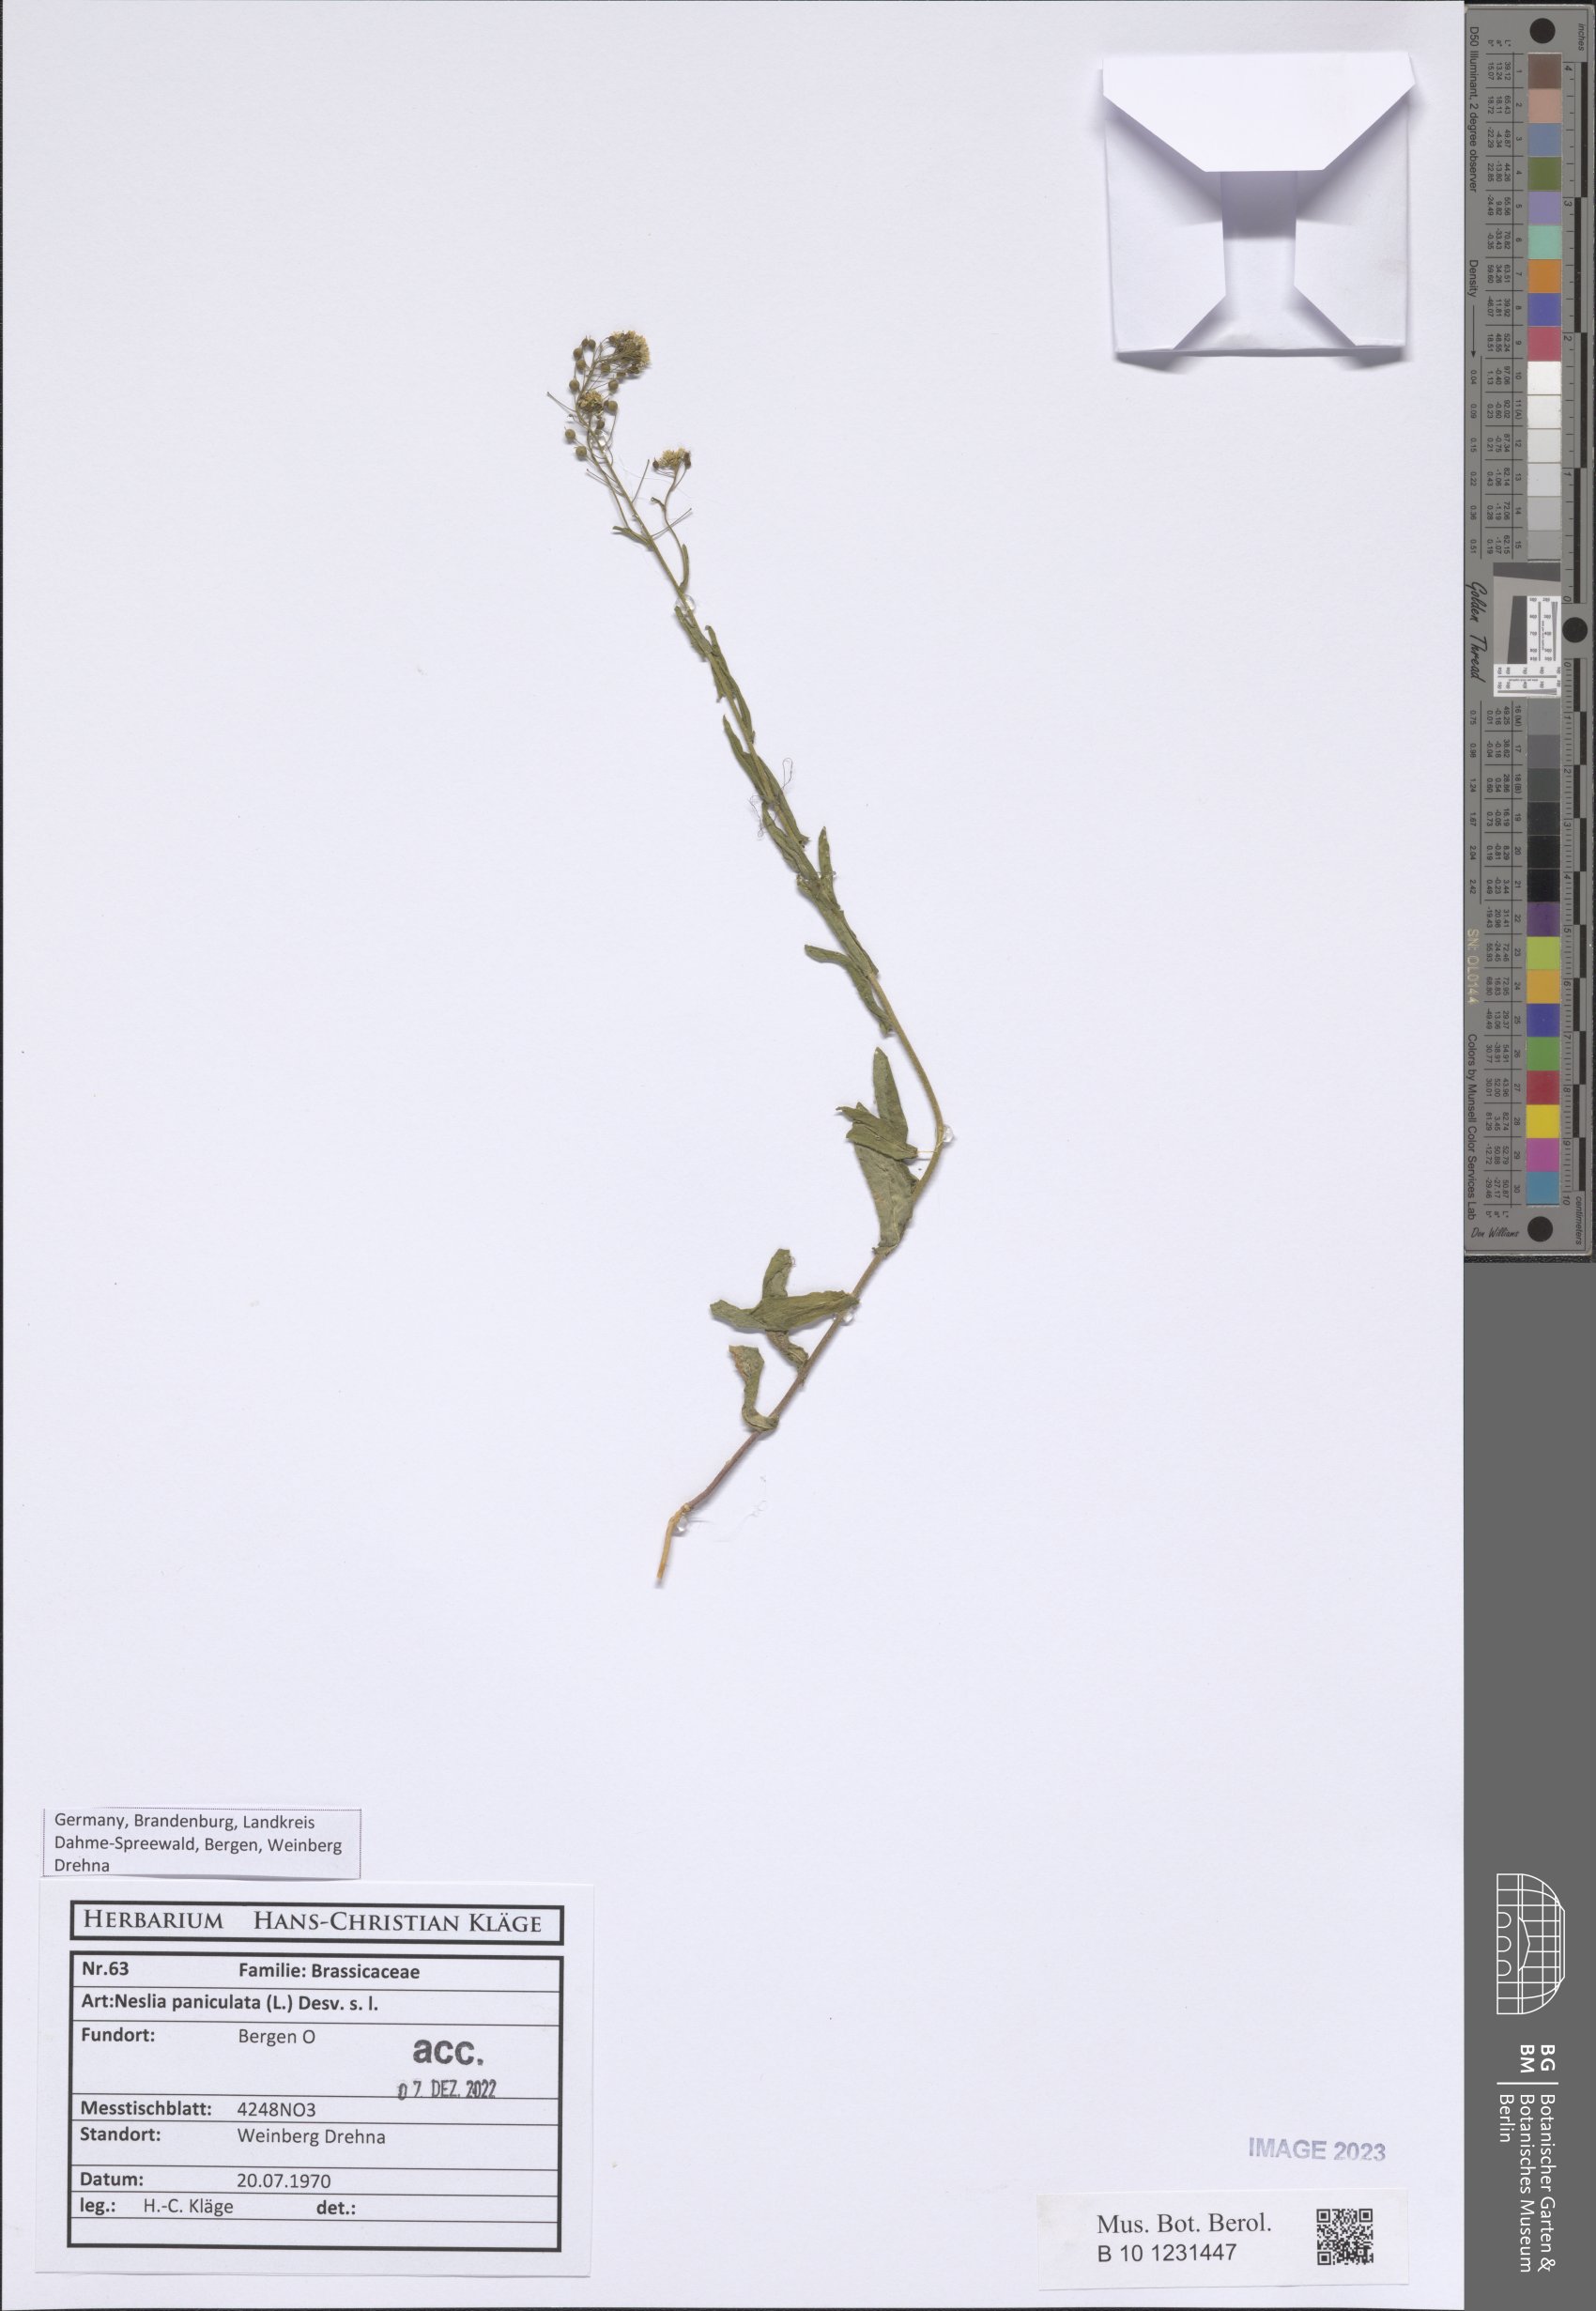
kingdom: Plantae
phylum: Tracheophyta
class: Magnoliopsida
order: Brassicales
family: Brassicaceae
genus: Neslia
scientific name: Neslia paniculata
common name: Ball mustard
